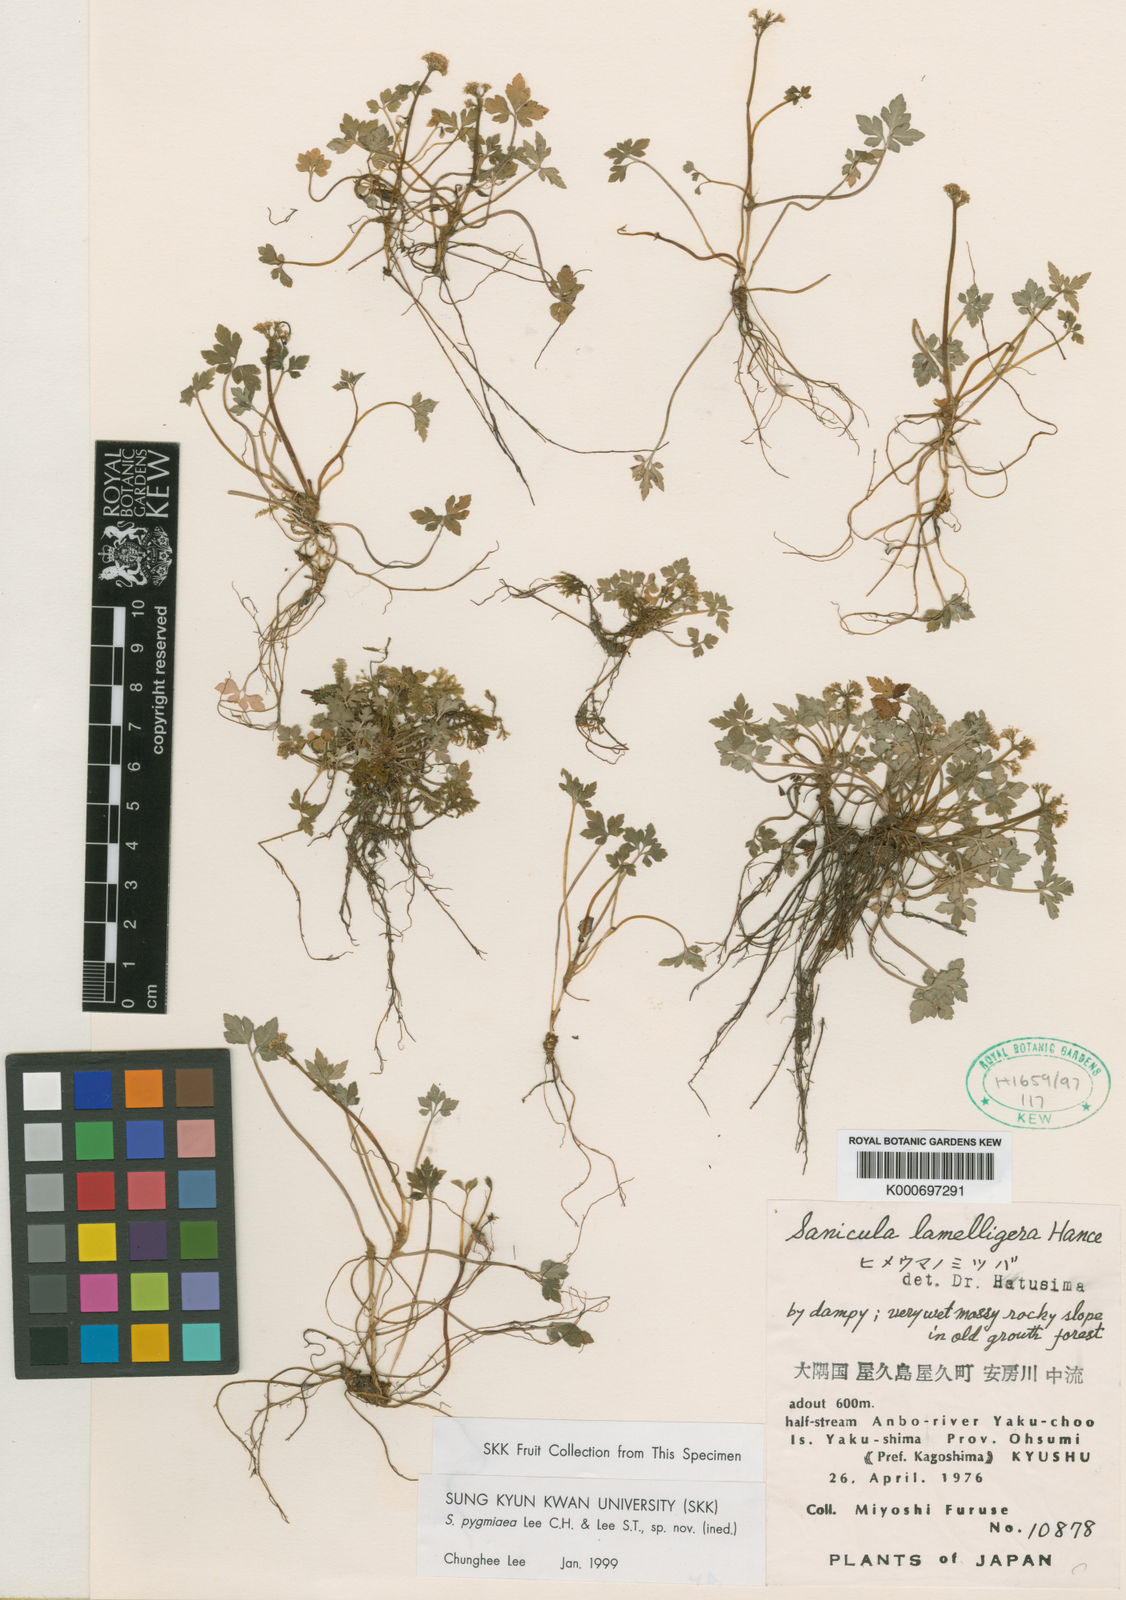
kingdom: Plantae
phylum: Tracheophyta
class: Magnoliopsida
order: Apiales
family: Apiaceae
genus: Sanicula
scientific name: Sanicula
